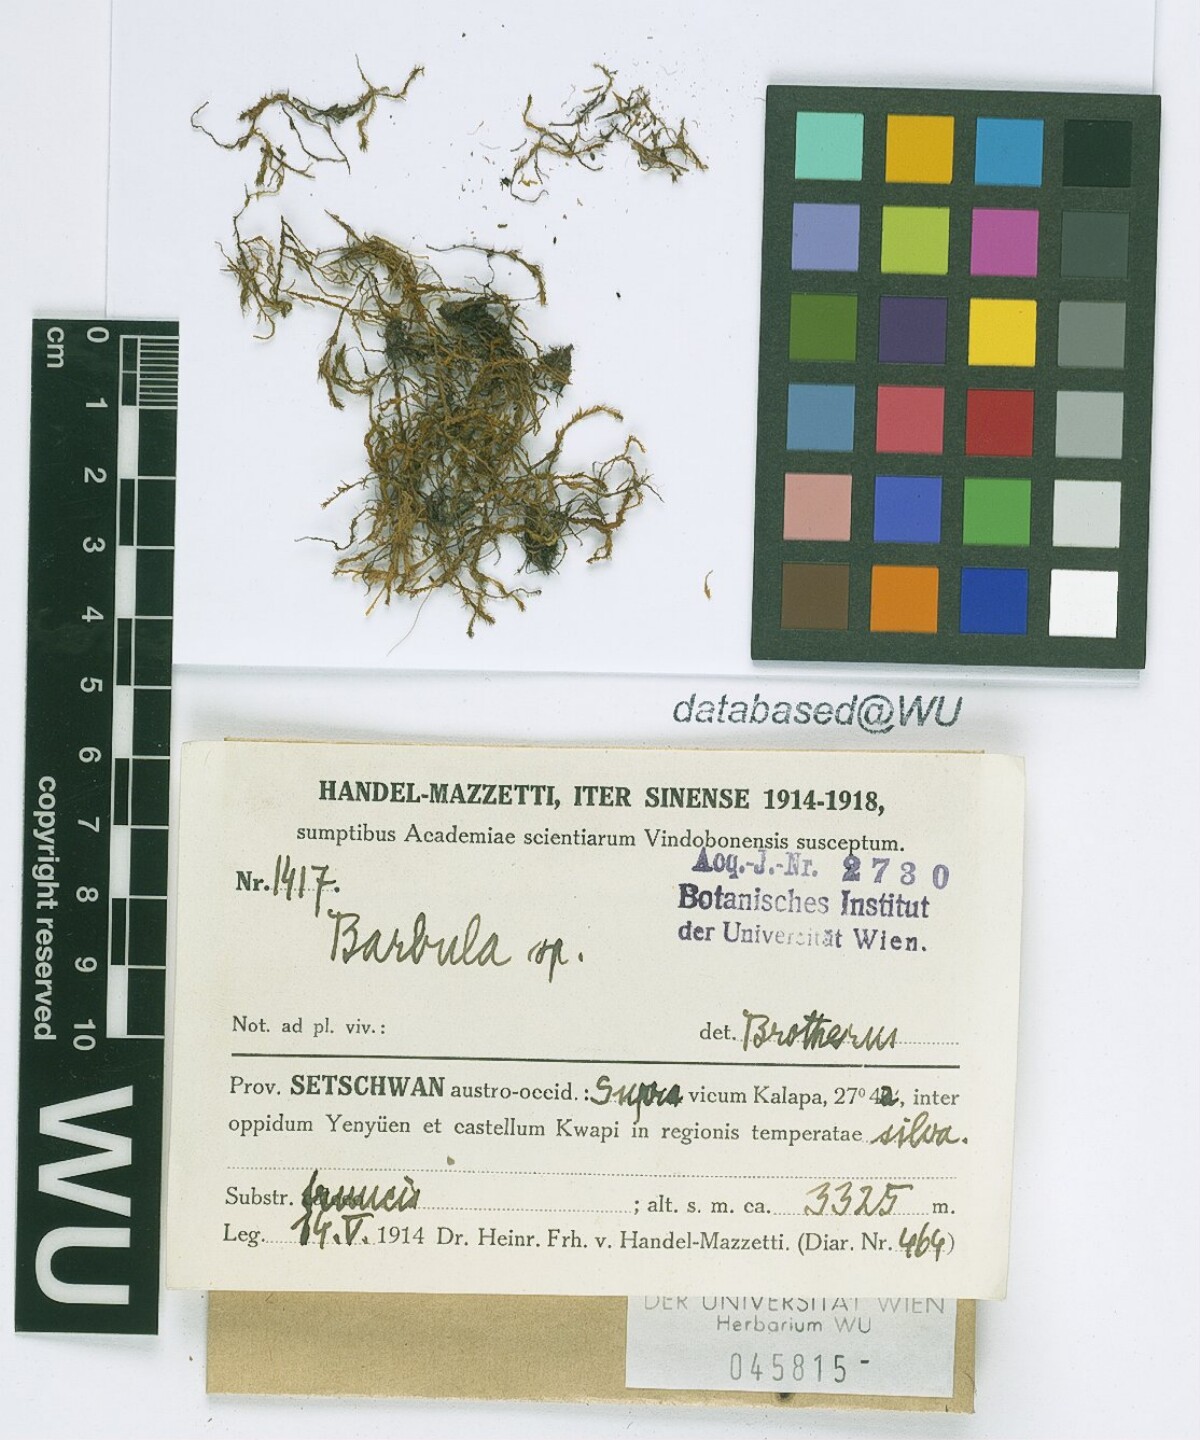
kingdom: Plantae
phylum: Bryophyta
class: Bryopsida
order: Pottiales
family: Pottiaceae
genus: Husnotiella
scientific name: Husnotiella rivicola
